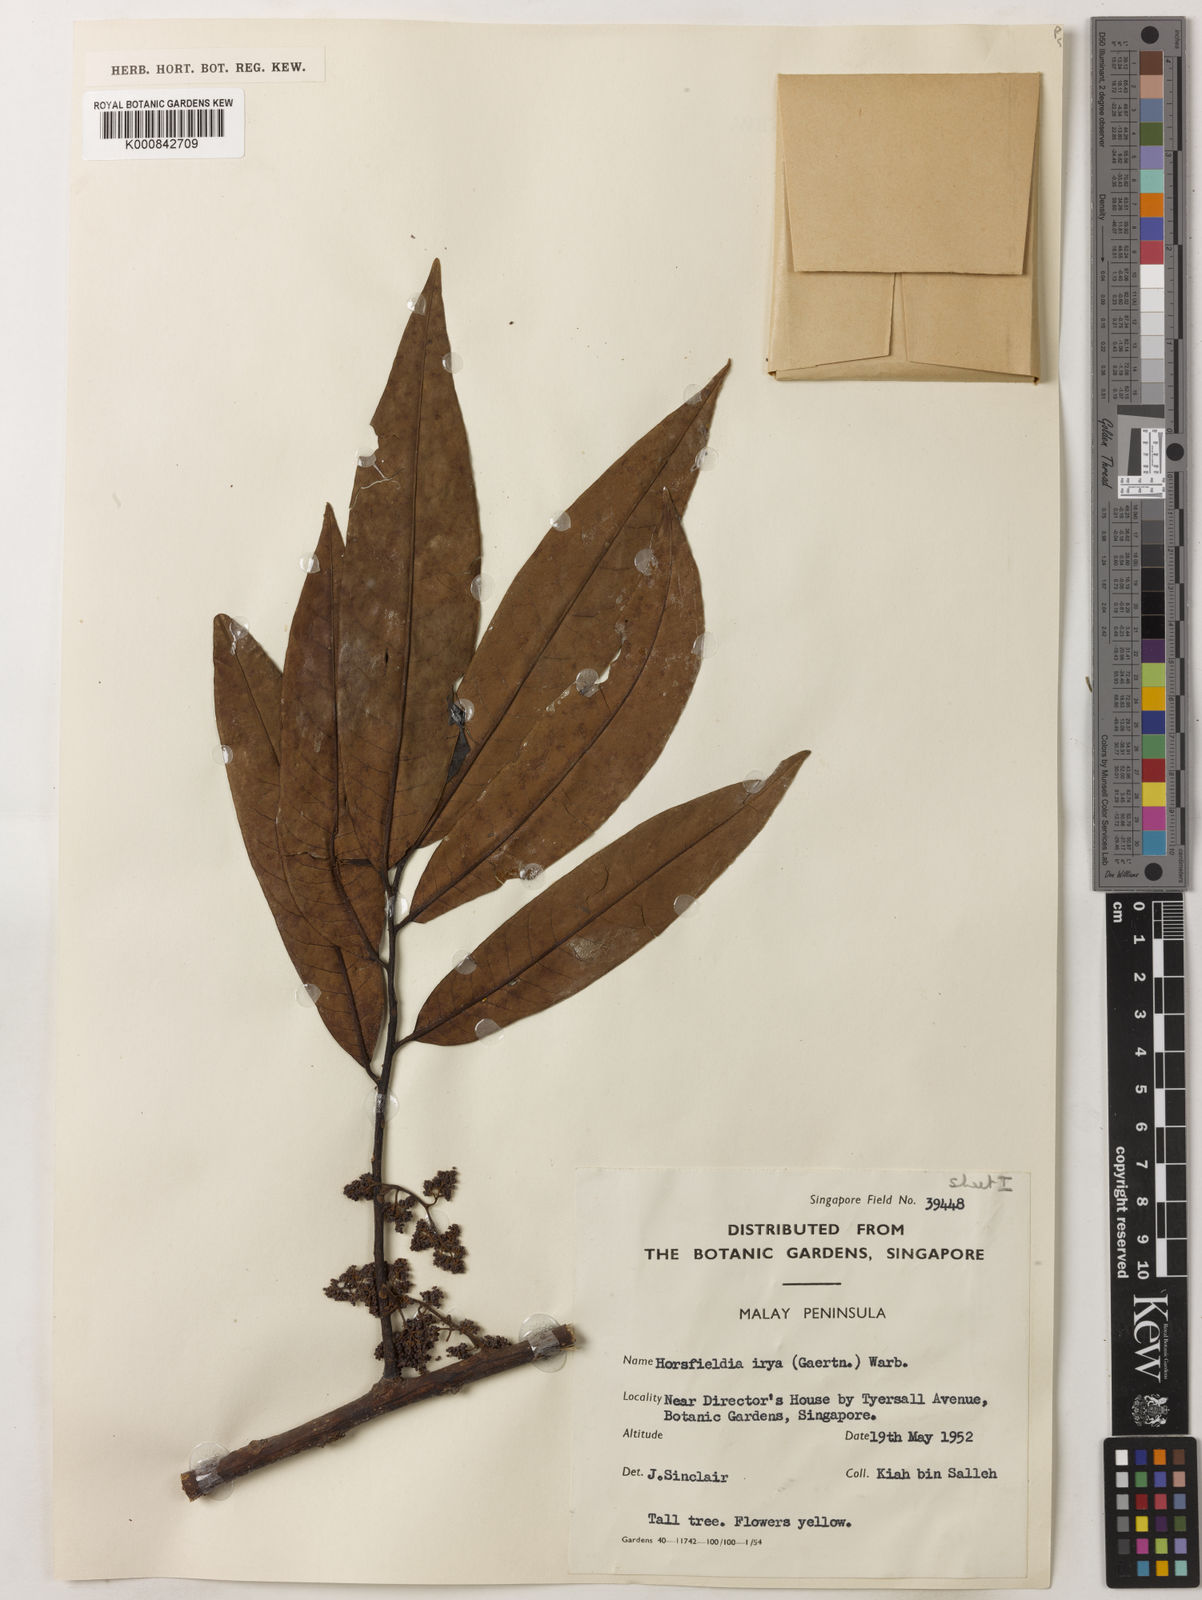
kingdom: Plantae
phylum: Tracheophyta
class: Magnoliopsida
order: Magnoliales
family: Myristicaceae
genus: Horsfieldia
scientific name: Horsfieldia irya
